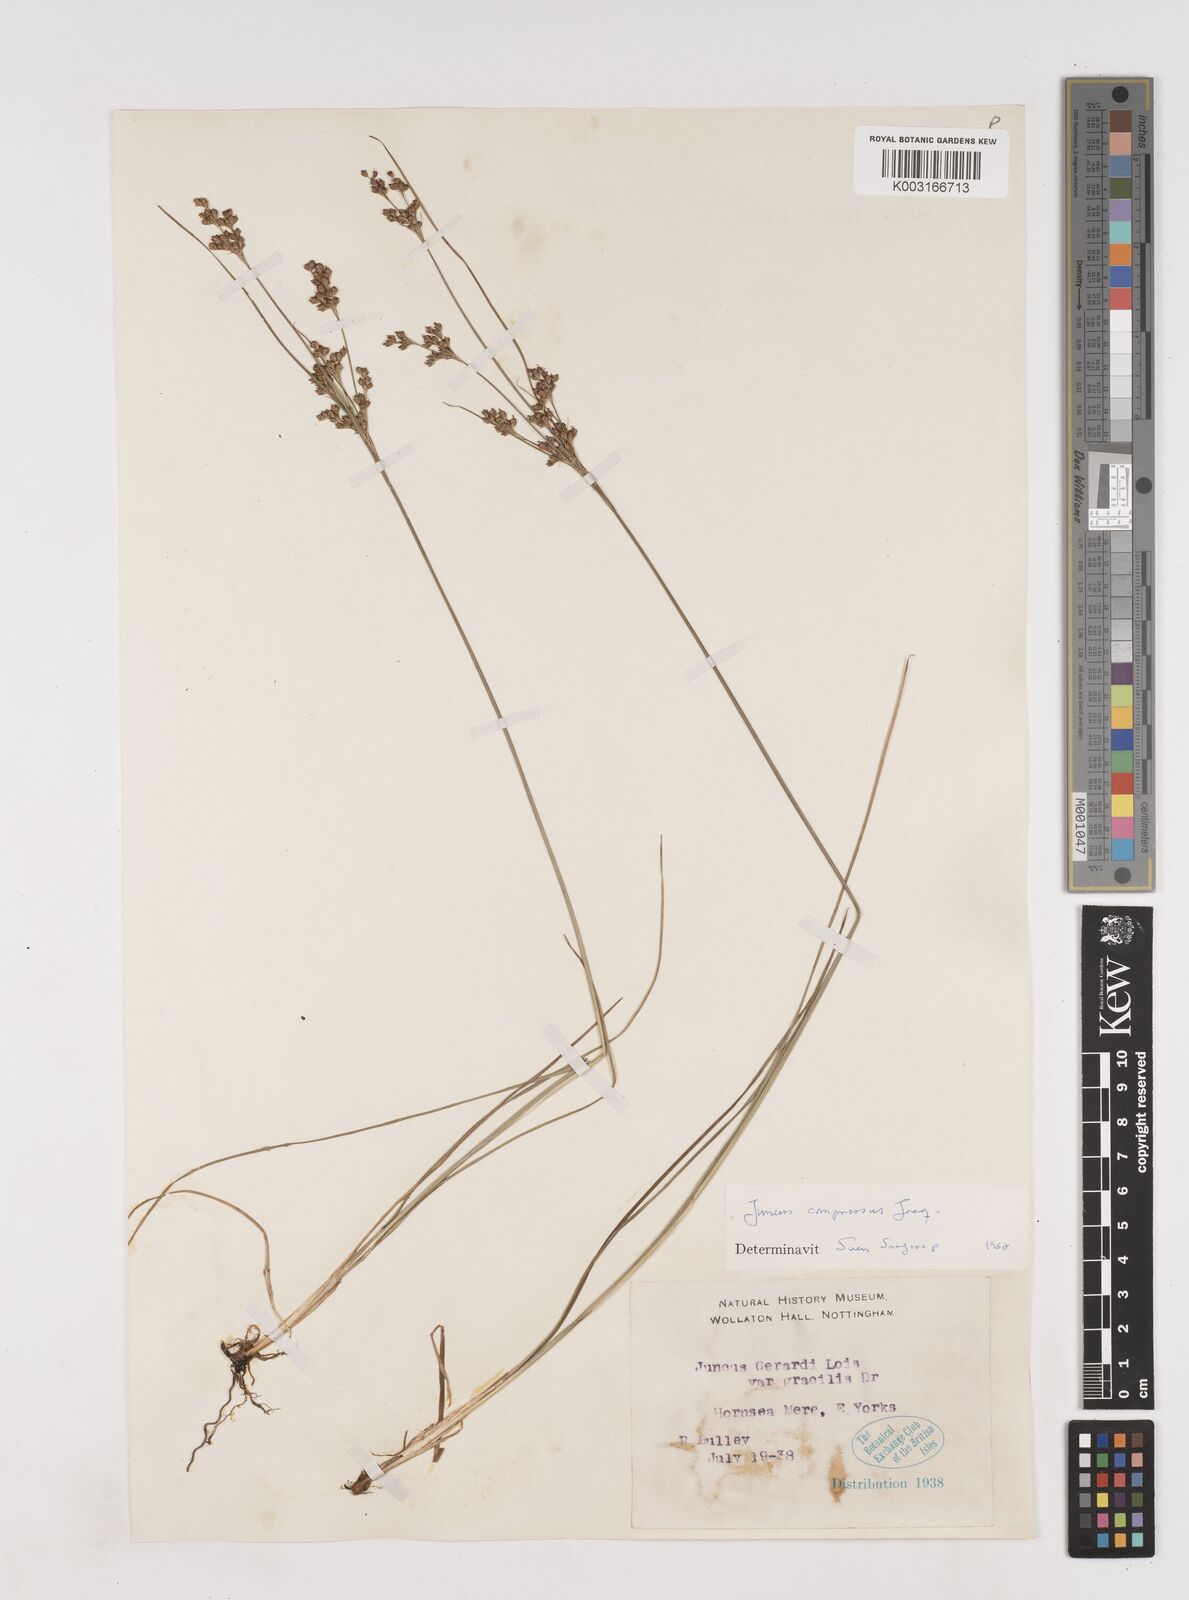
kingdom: Plantae
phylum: Tracheophyta
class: Liliopsida
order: Poales
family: Juncaceae
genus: Juncus
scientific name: Juncus compressus
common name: Round-fruited rush
